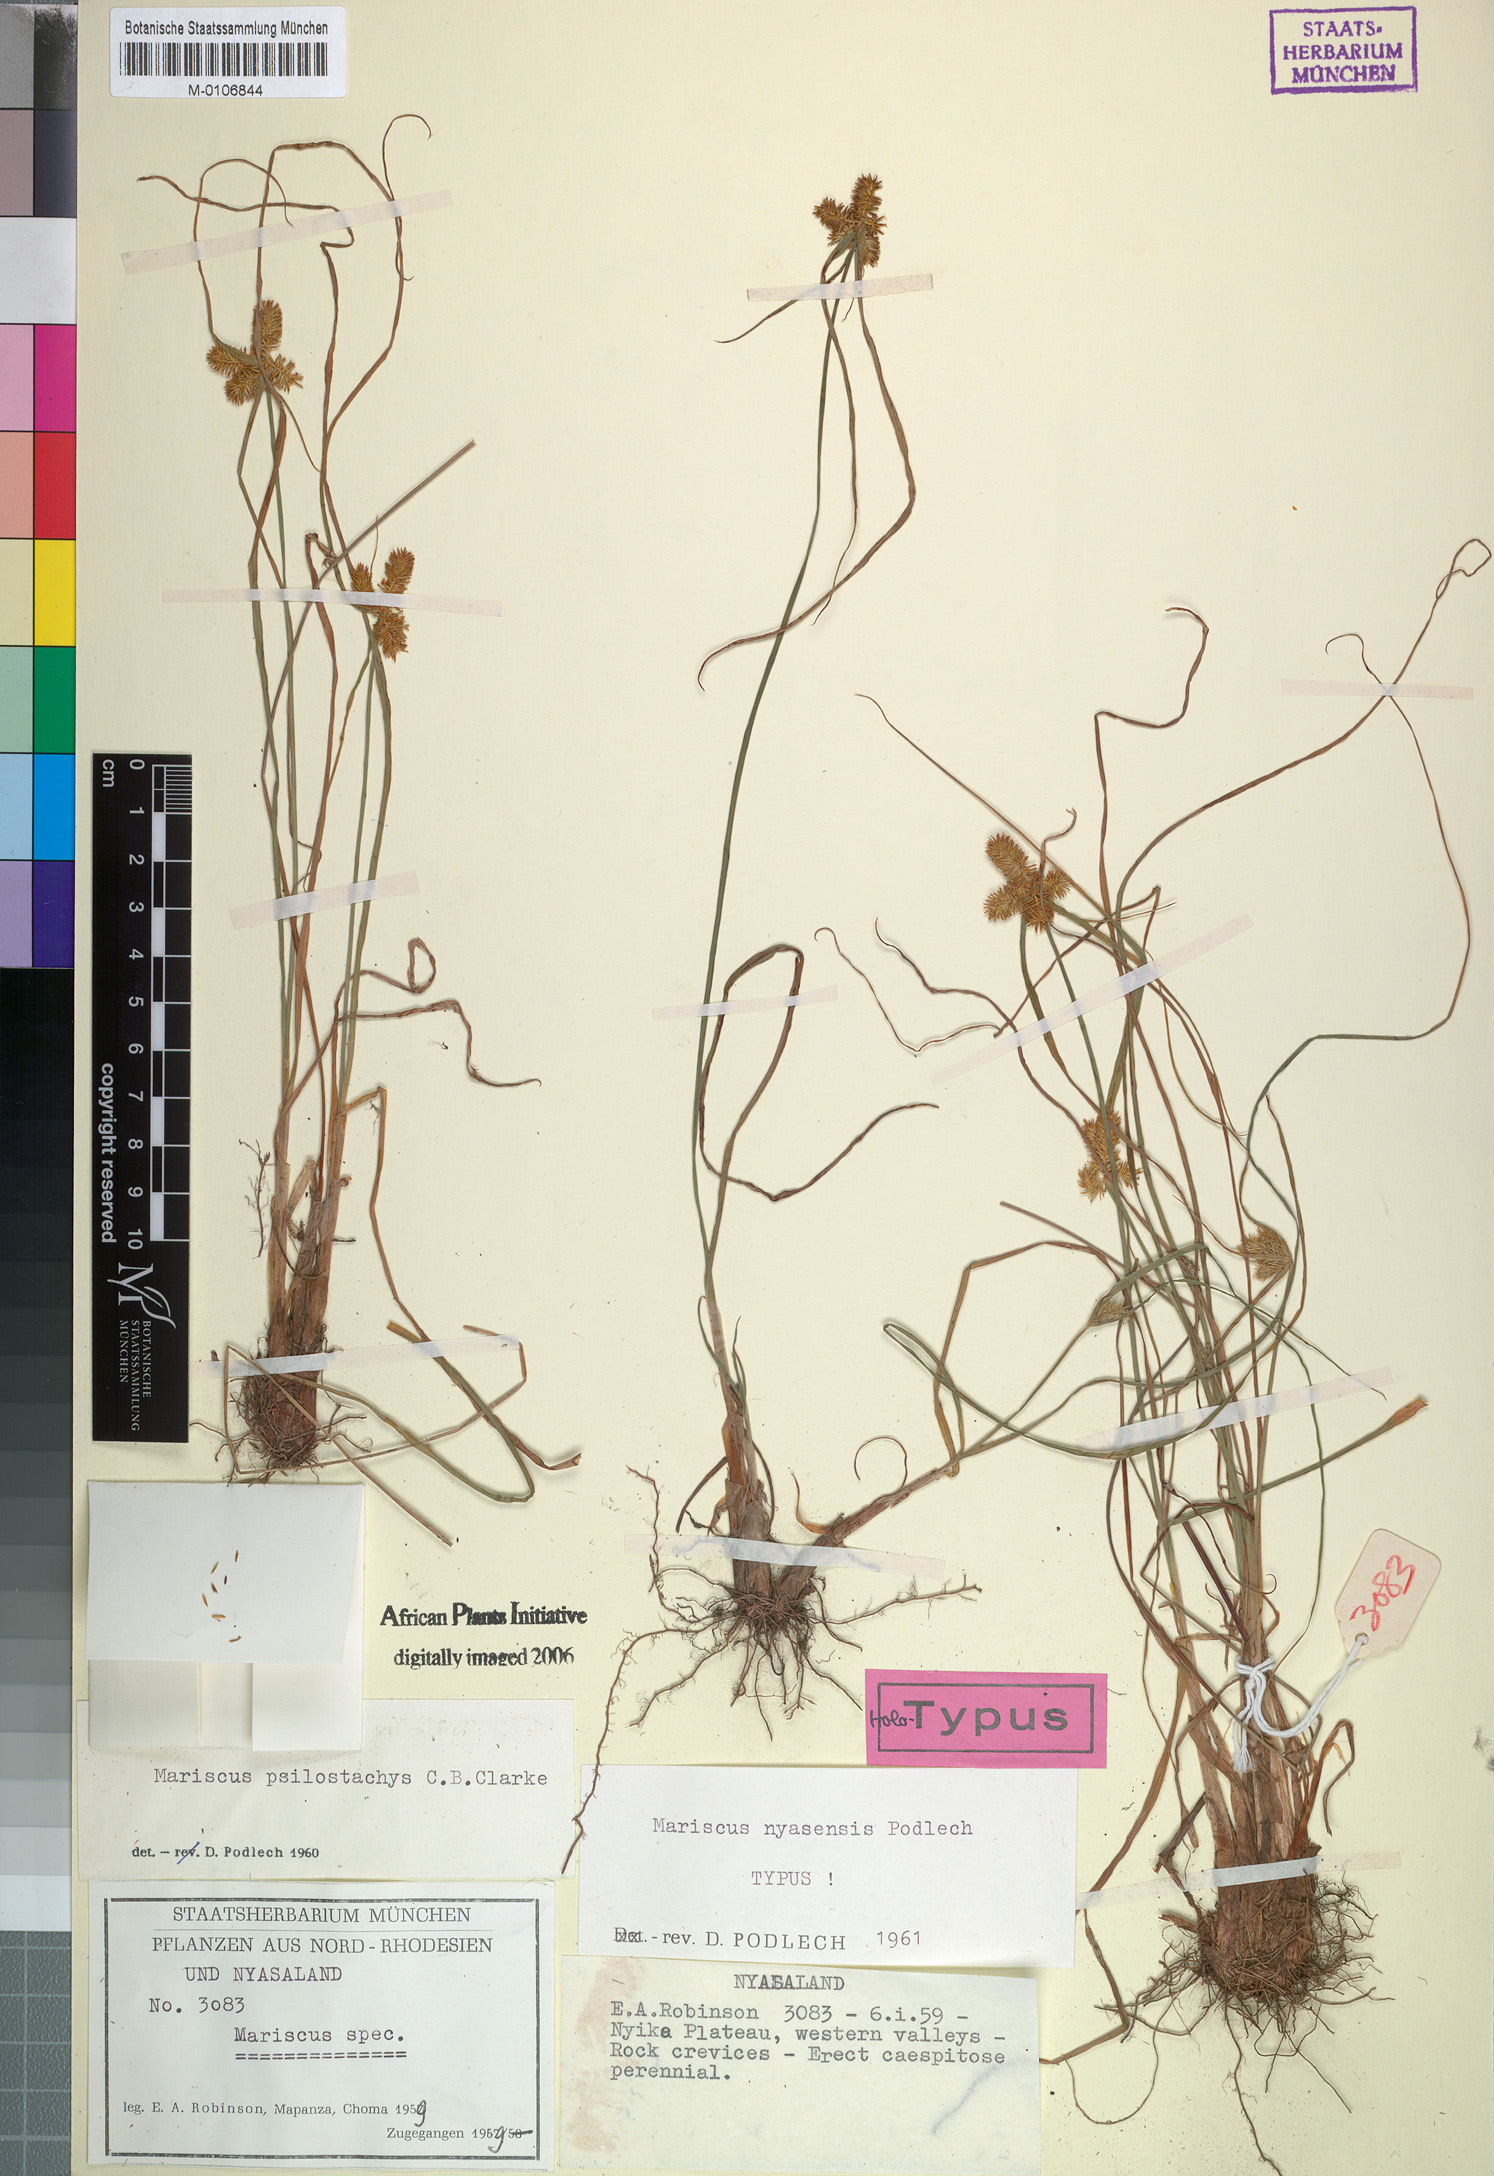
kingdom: Plantae
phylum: Tracheophyta
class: Liliopsida
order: Poales
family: Cyperaceae
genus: Cyperus
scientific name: Cyperus nyasensis
